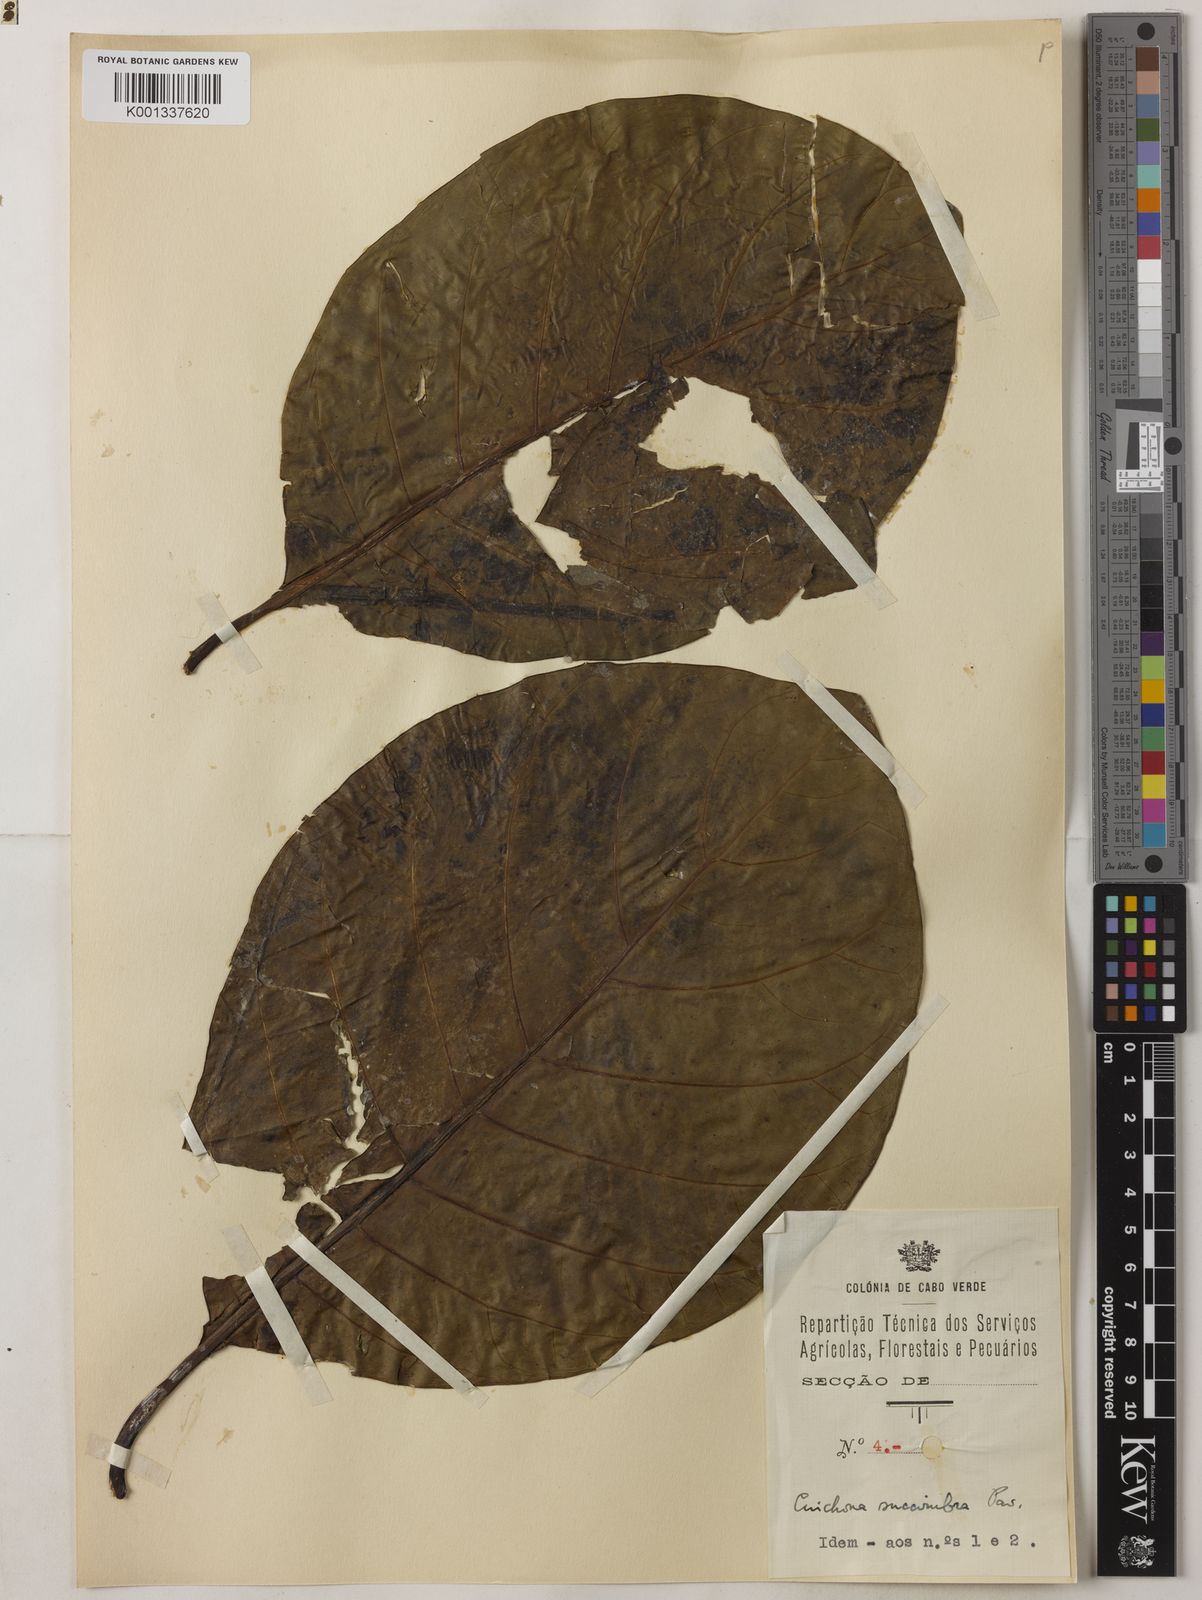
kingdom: Plantae
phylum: Tracheophyta
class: Magnoliopsida
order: Gentianales
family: Rubiaceae
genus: Cinchona
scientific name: Cinchona pubescens
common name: Quinine
